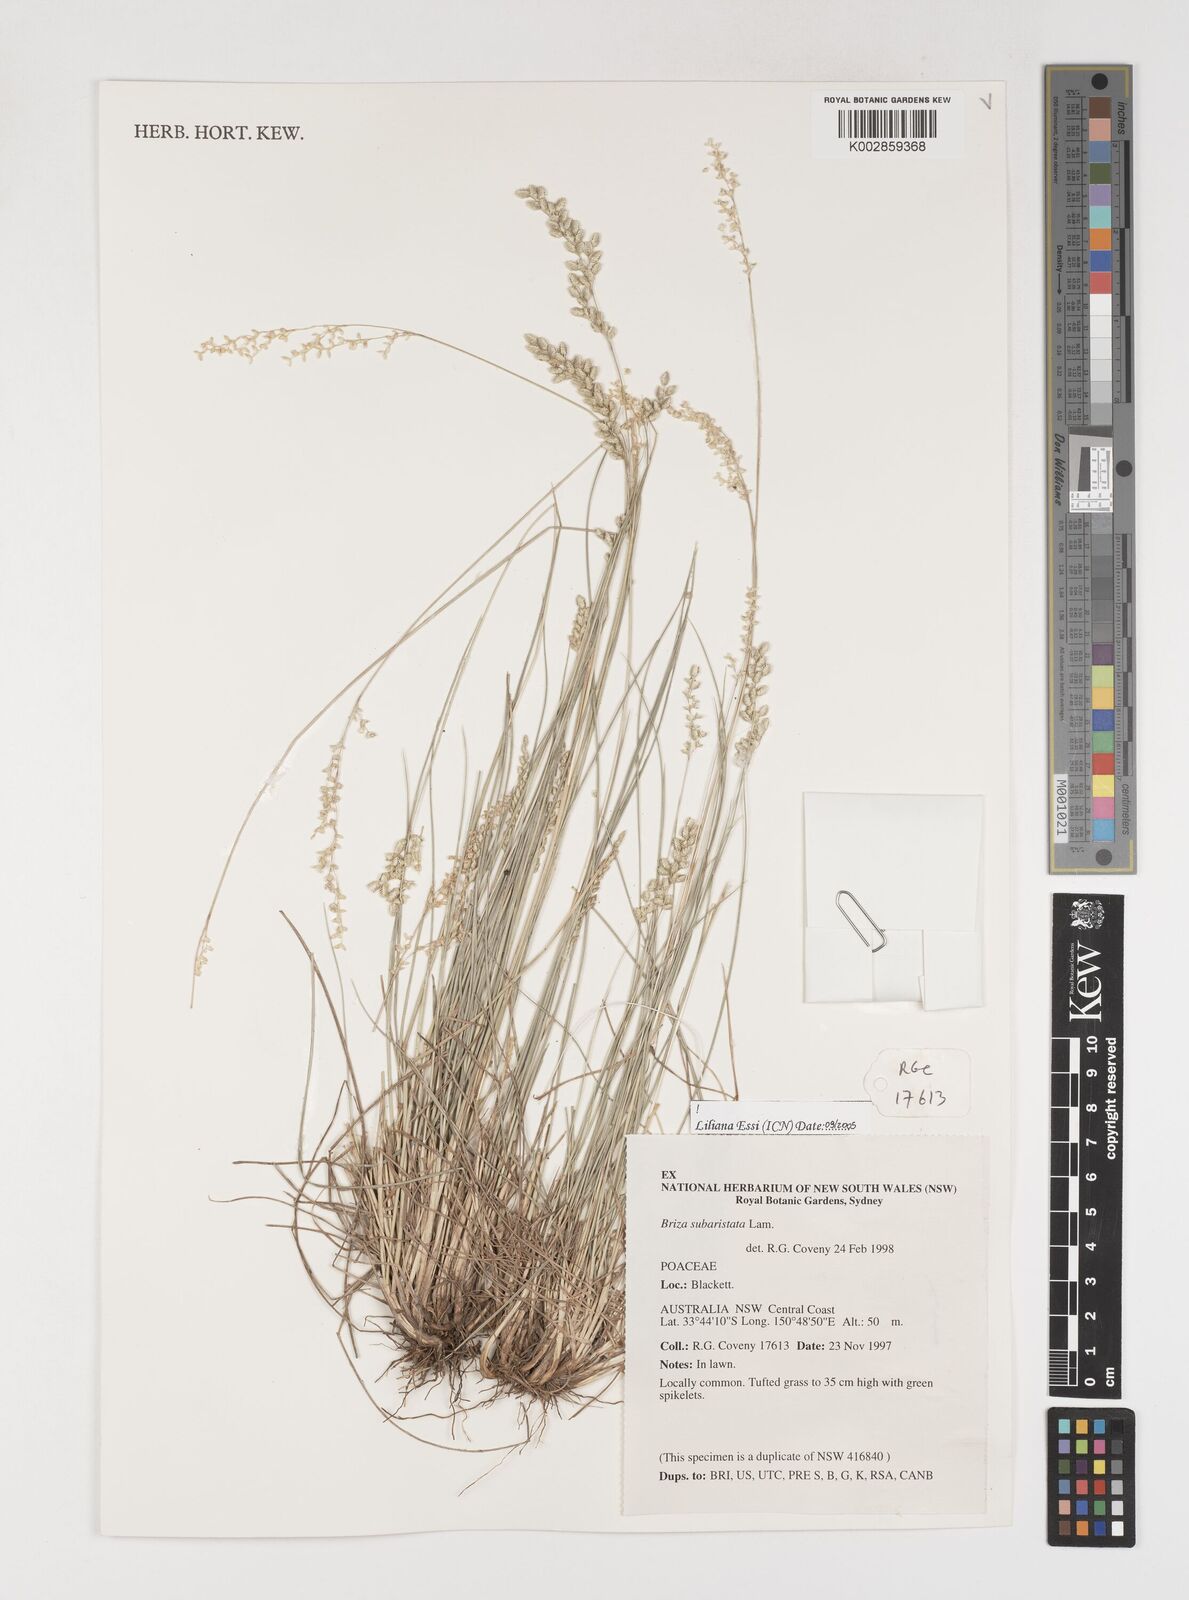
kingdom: Plantae
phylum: Tracheophyta
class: Liliopsida
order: Poales
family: Poaceae
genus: Chascolytrum
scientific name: Chascolytrum subaristatum
